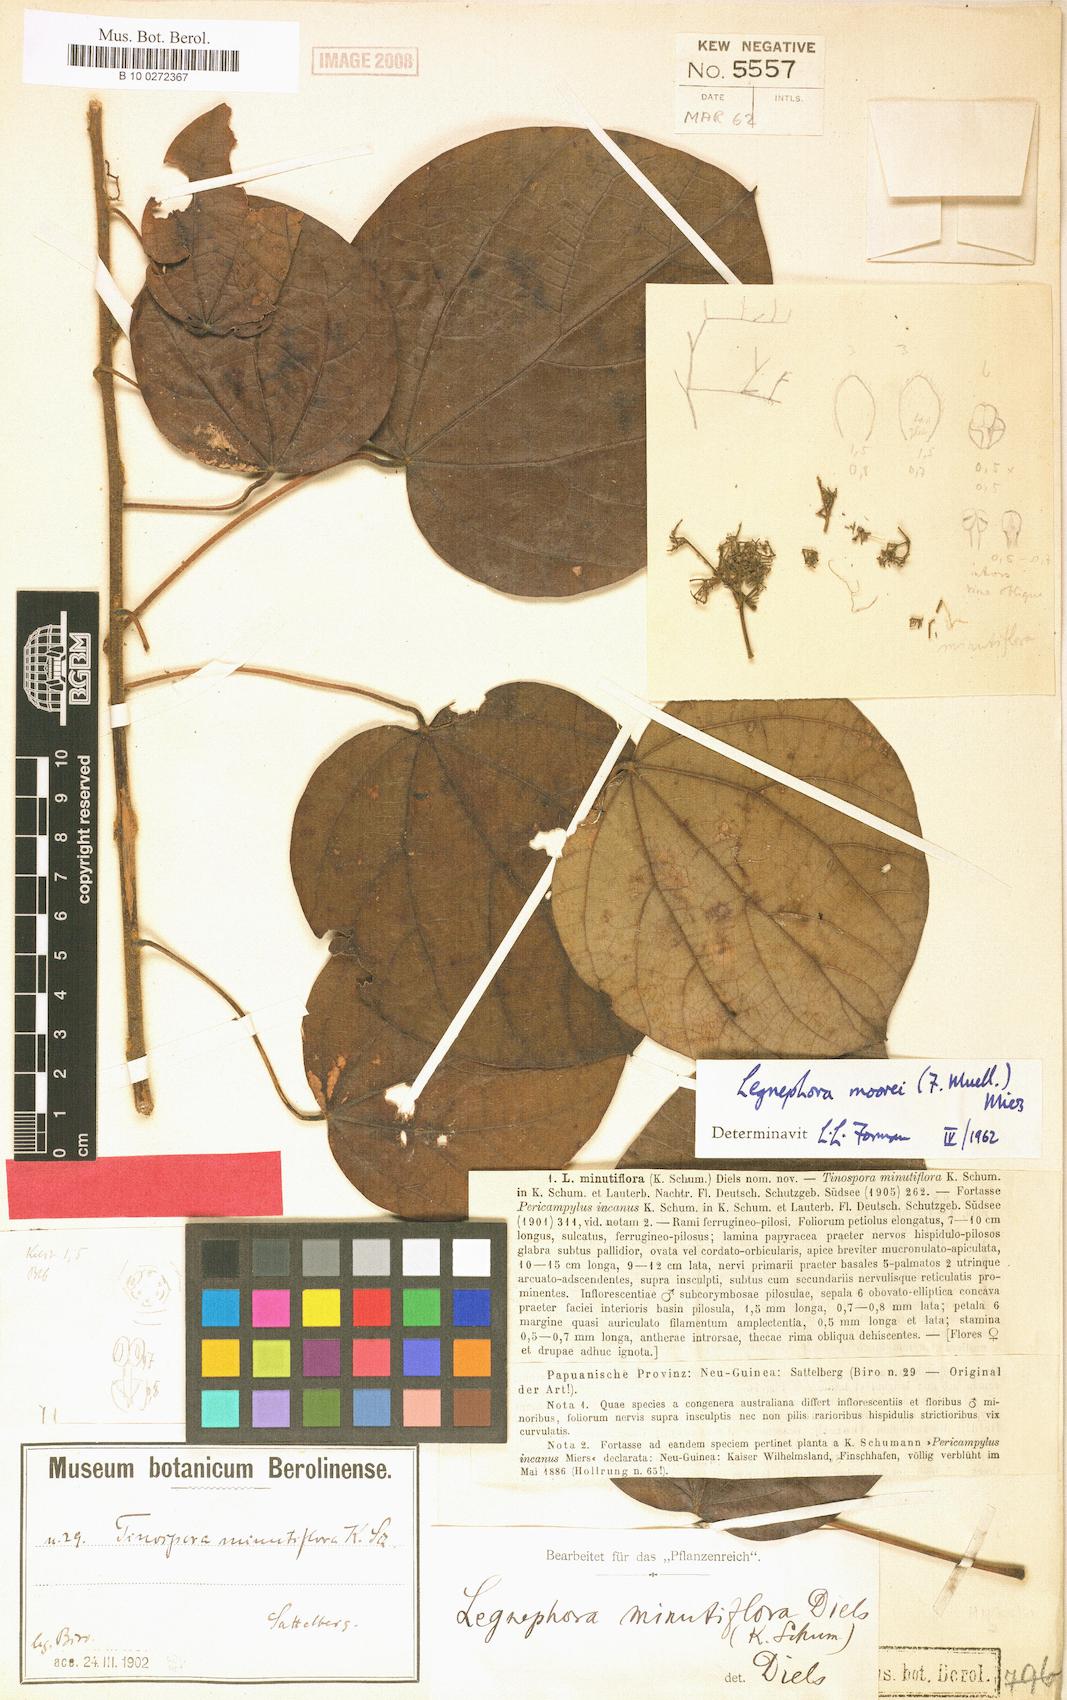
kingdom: Plantae
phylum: Tracheophyta
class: Magnoliopsida
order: Ranunculales
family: Menispermaceae
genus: Legnephora
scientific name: Legnephora minutiflora
